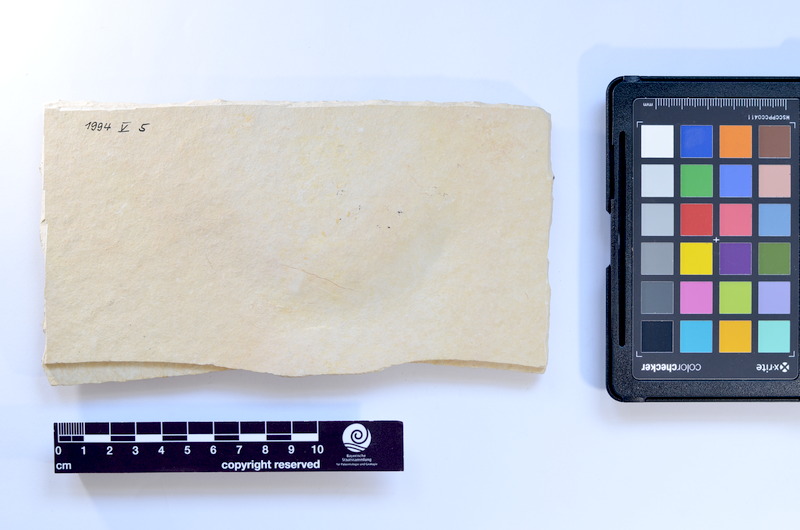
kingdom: Animalia
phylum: Chordata
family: Ascalaboidae
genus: Tharsis
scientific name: Tharsis dubius
